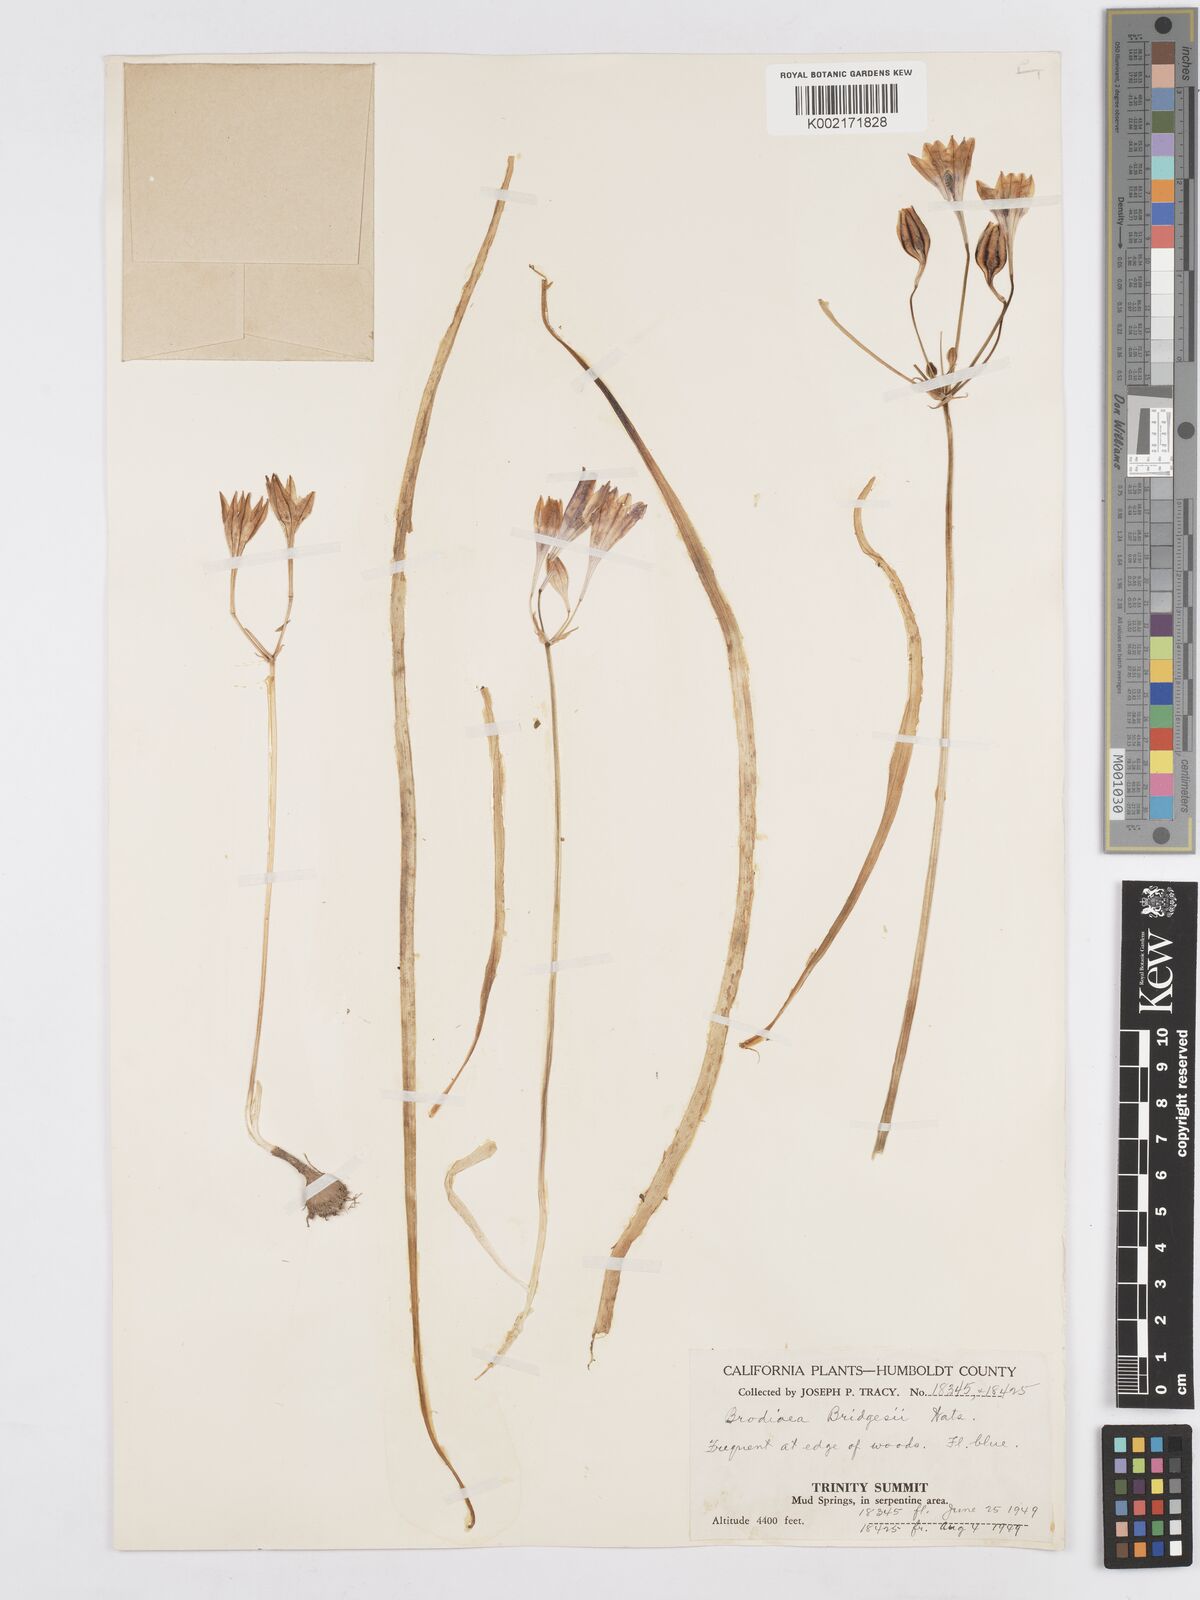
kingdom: Plantae
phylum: Tracheophyta
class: Liliopsida
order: Asparagales
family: Asparagaceae
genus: Triteleia
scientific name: Triteleia bridgesii
